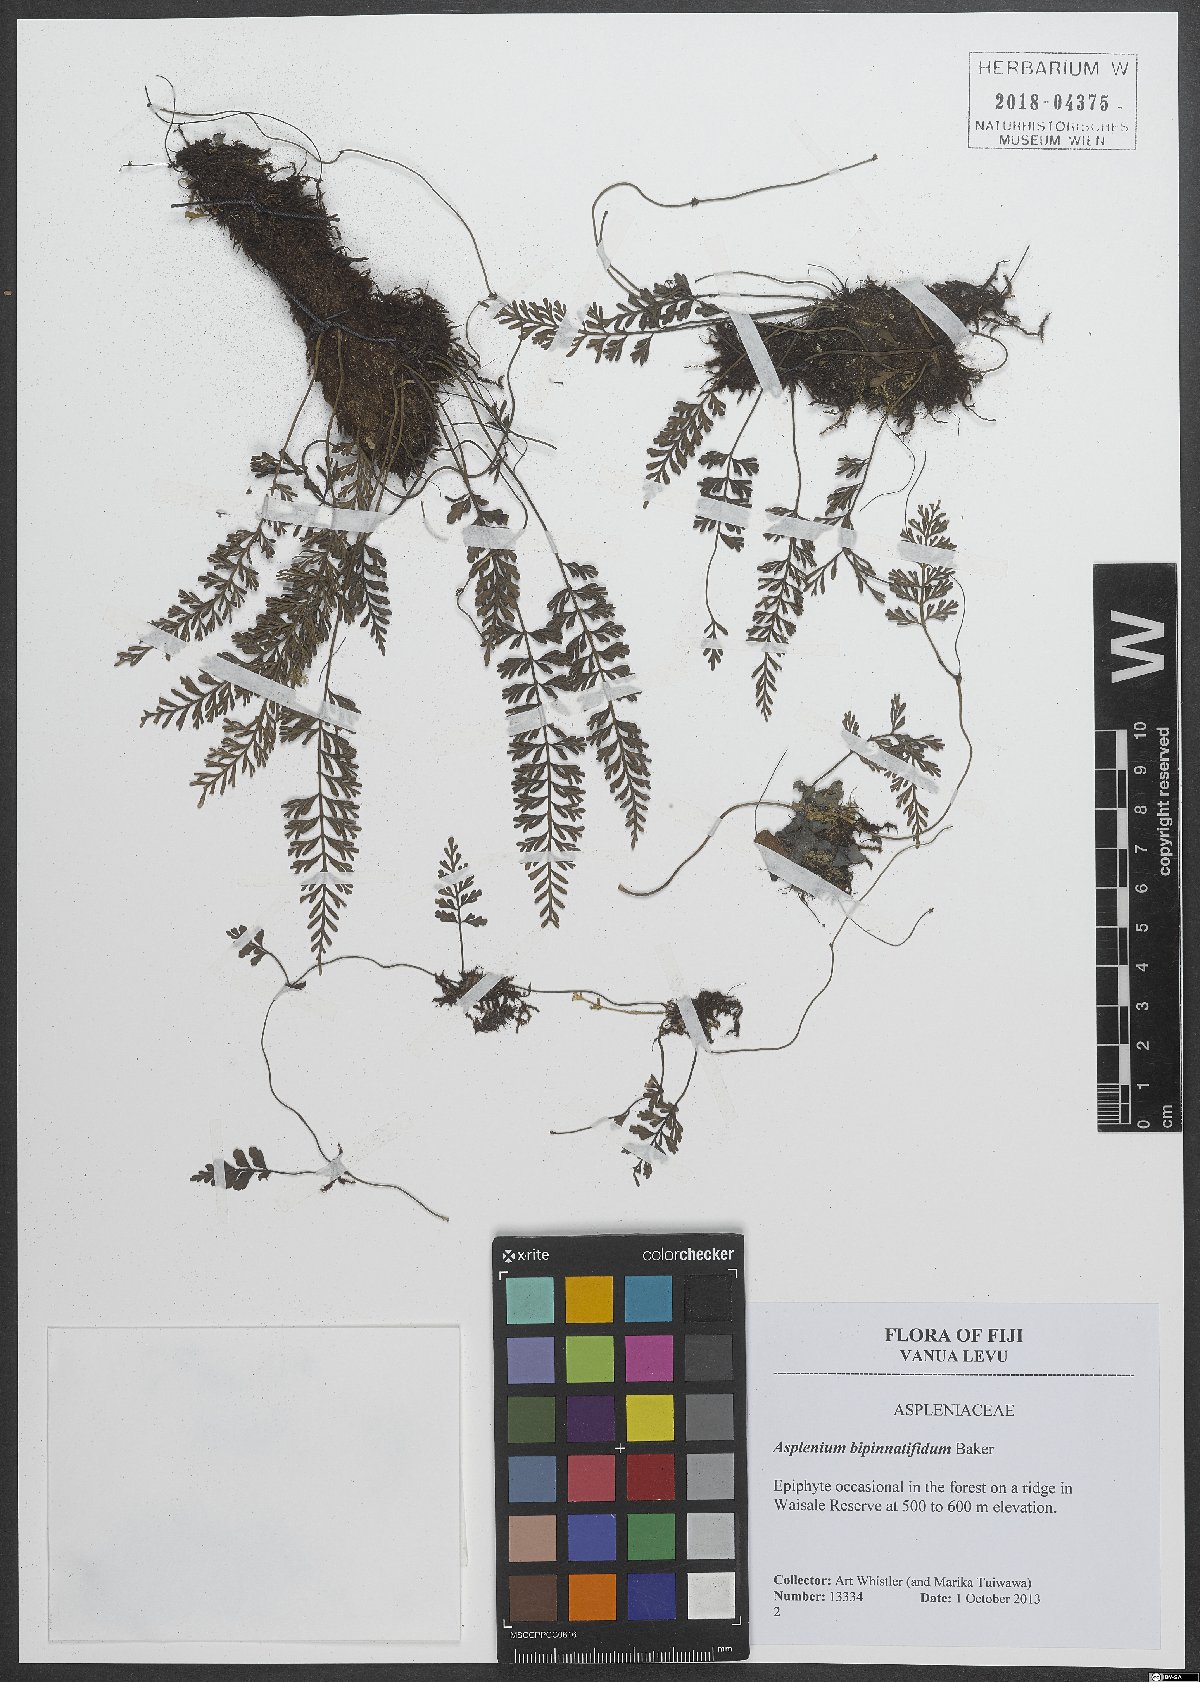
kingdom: Plantae
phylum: Tracheophyta
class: Polypodiopsida
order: Polypodiales
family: Aspleniaceae
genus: Asplenium
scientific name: Asplenium bipinnatifidum
